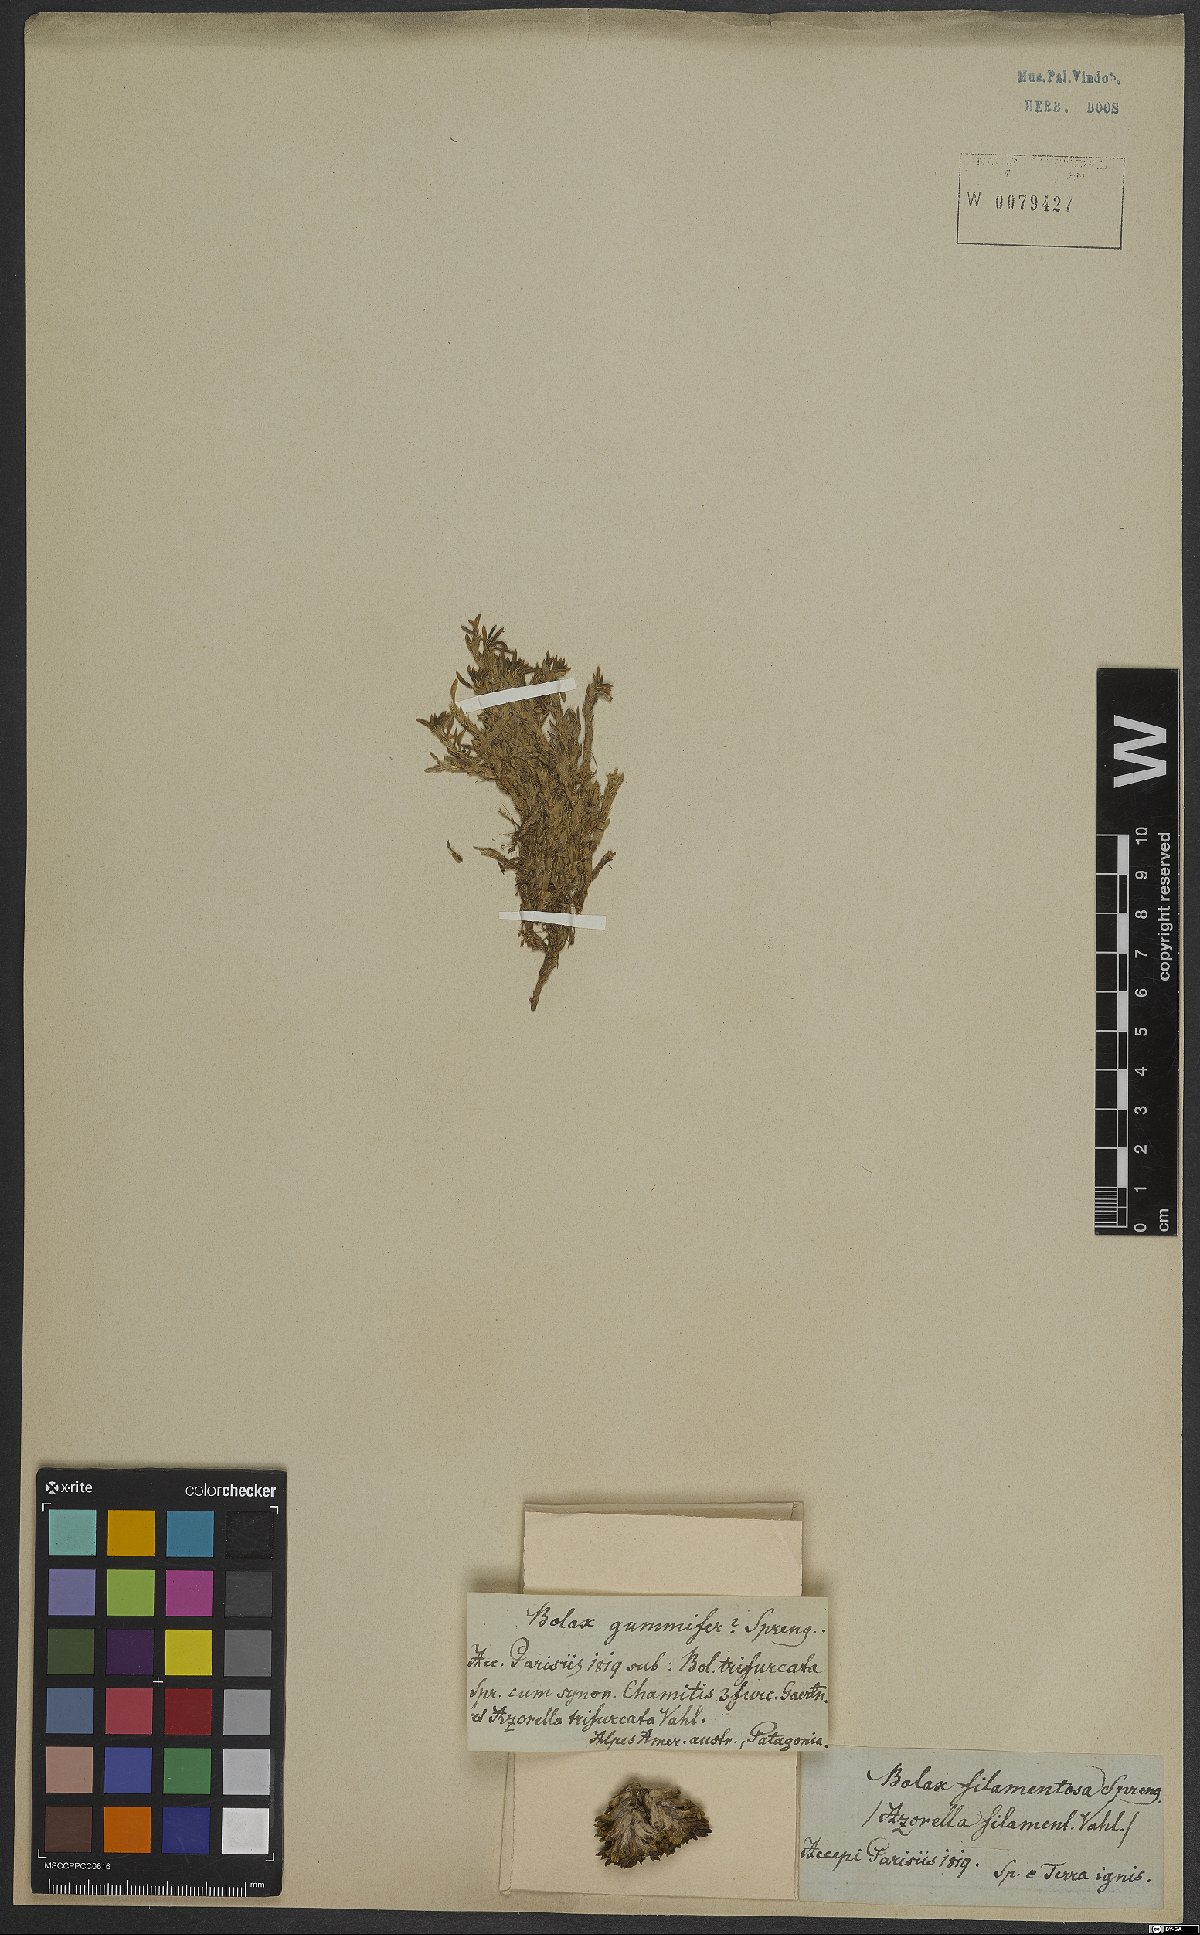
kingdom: Plantae
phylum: Tracheophyta
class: Magnoliopsida
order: Apiales
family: Apiaceae
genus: Azorella
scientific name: Azorella filamentosa
